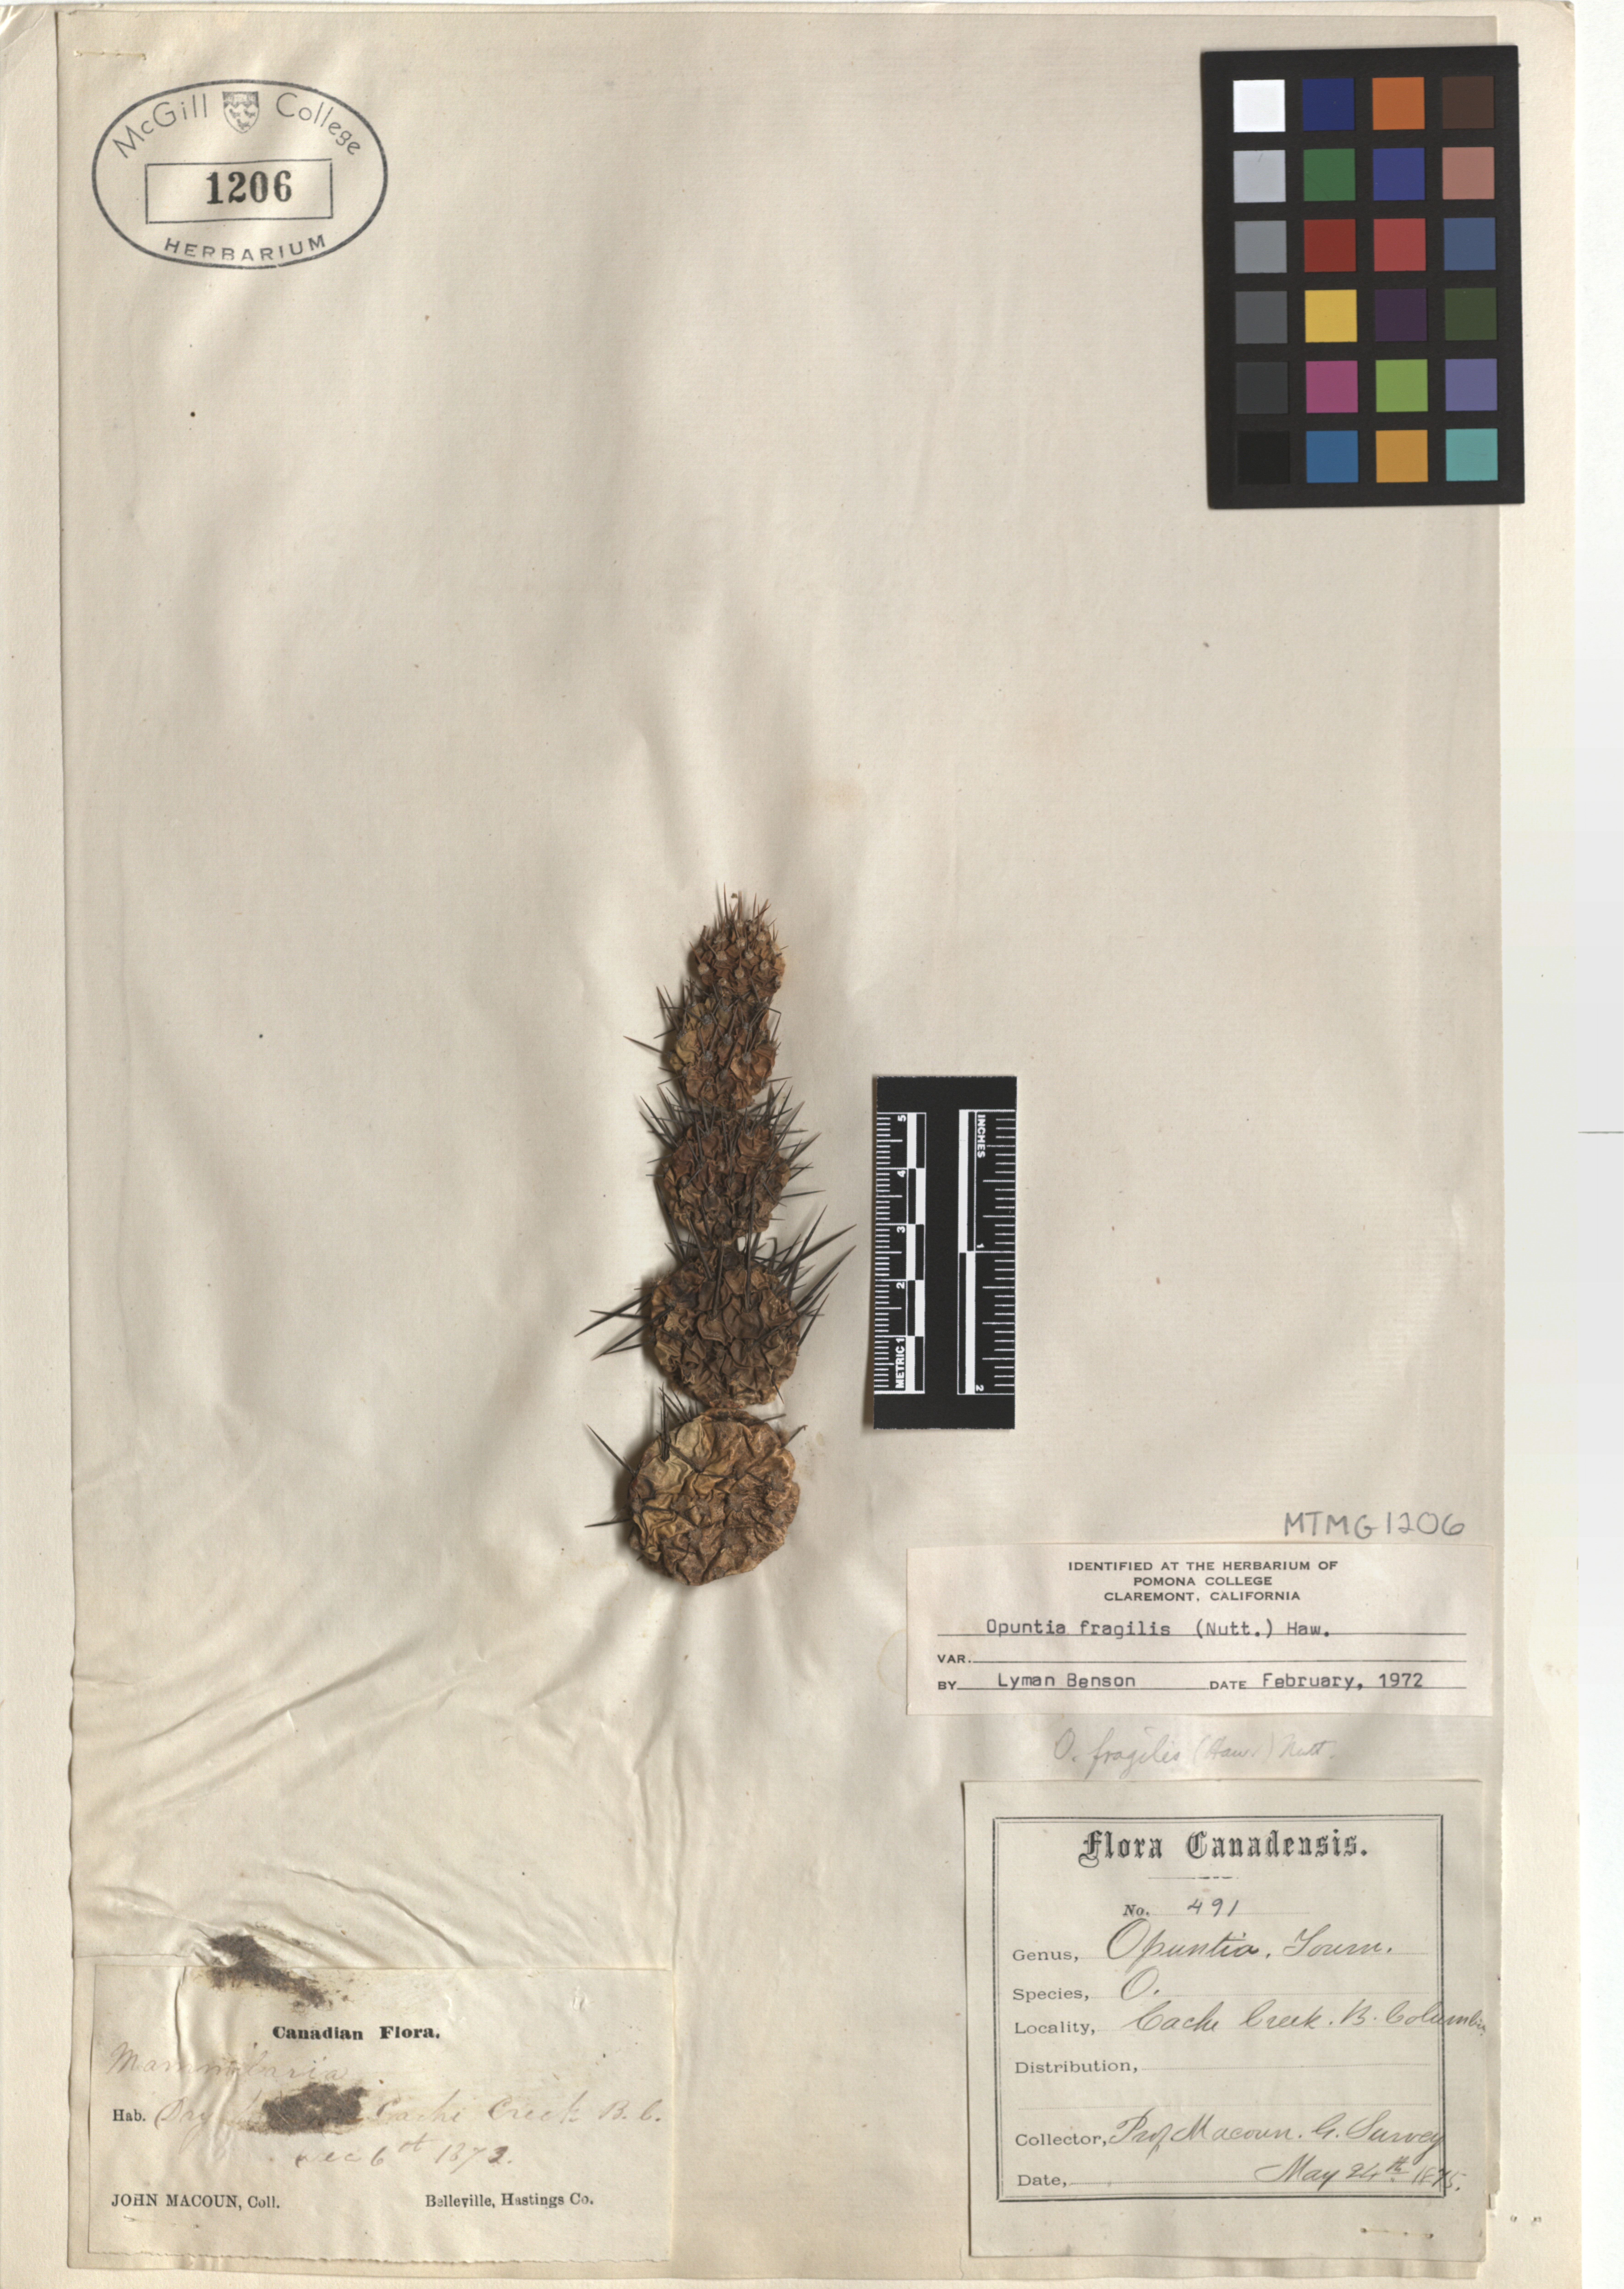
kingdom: Plantae
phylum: Tracheophyta
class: Magnoliopsida
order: Caryophyllales
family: Cactaceae
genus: Opuntia
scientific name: Opuntia fragilis
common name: Brittle cactus
